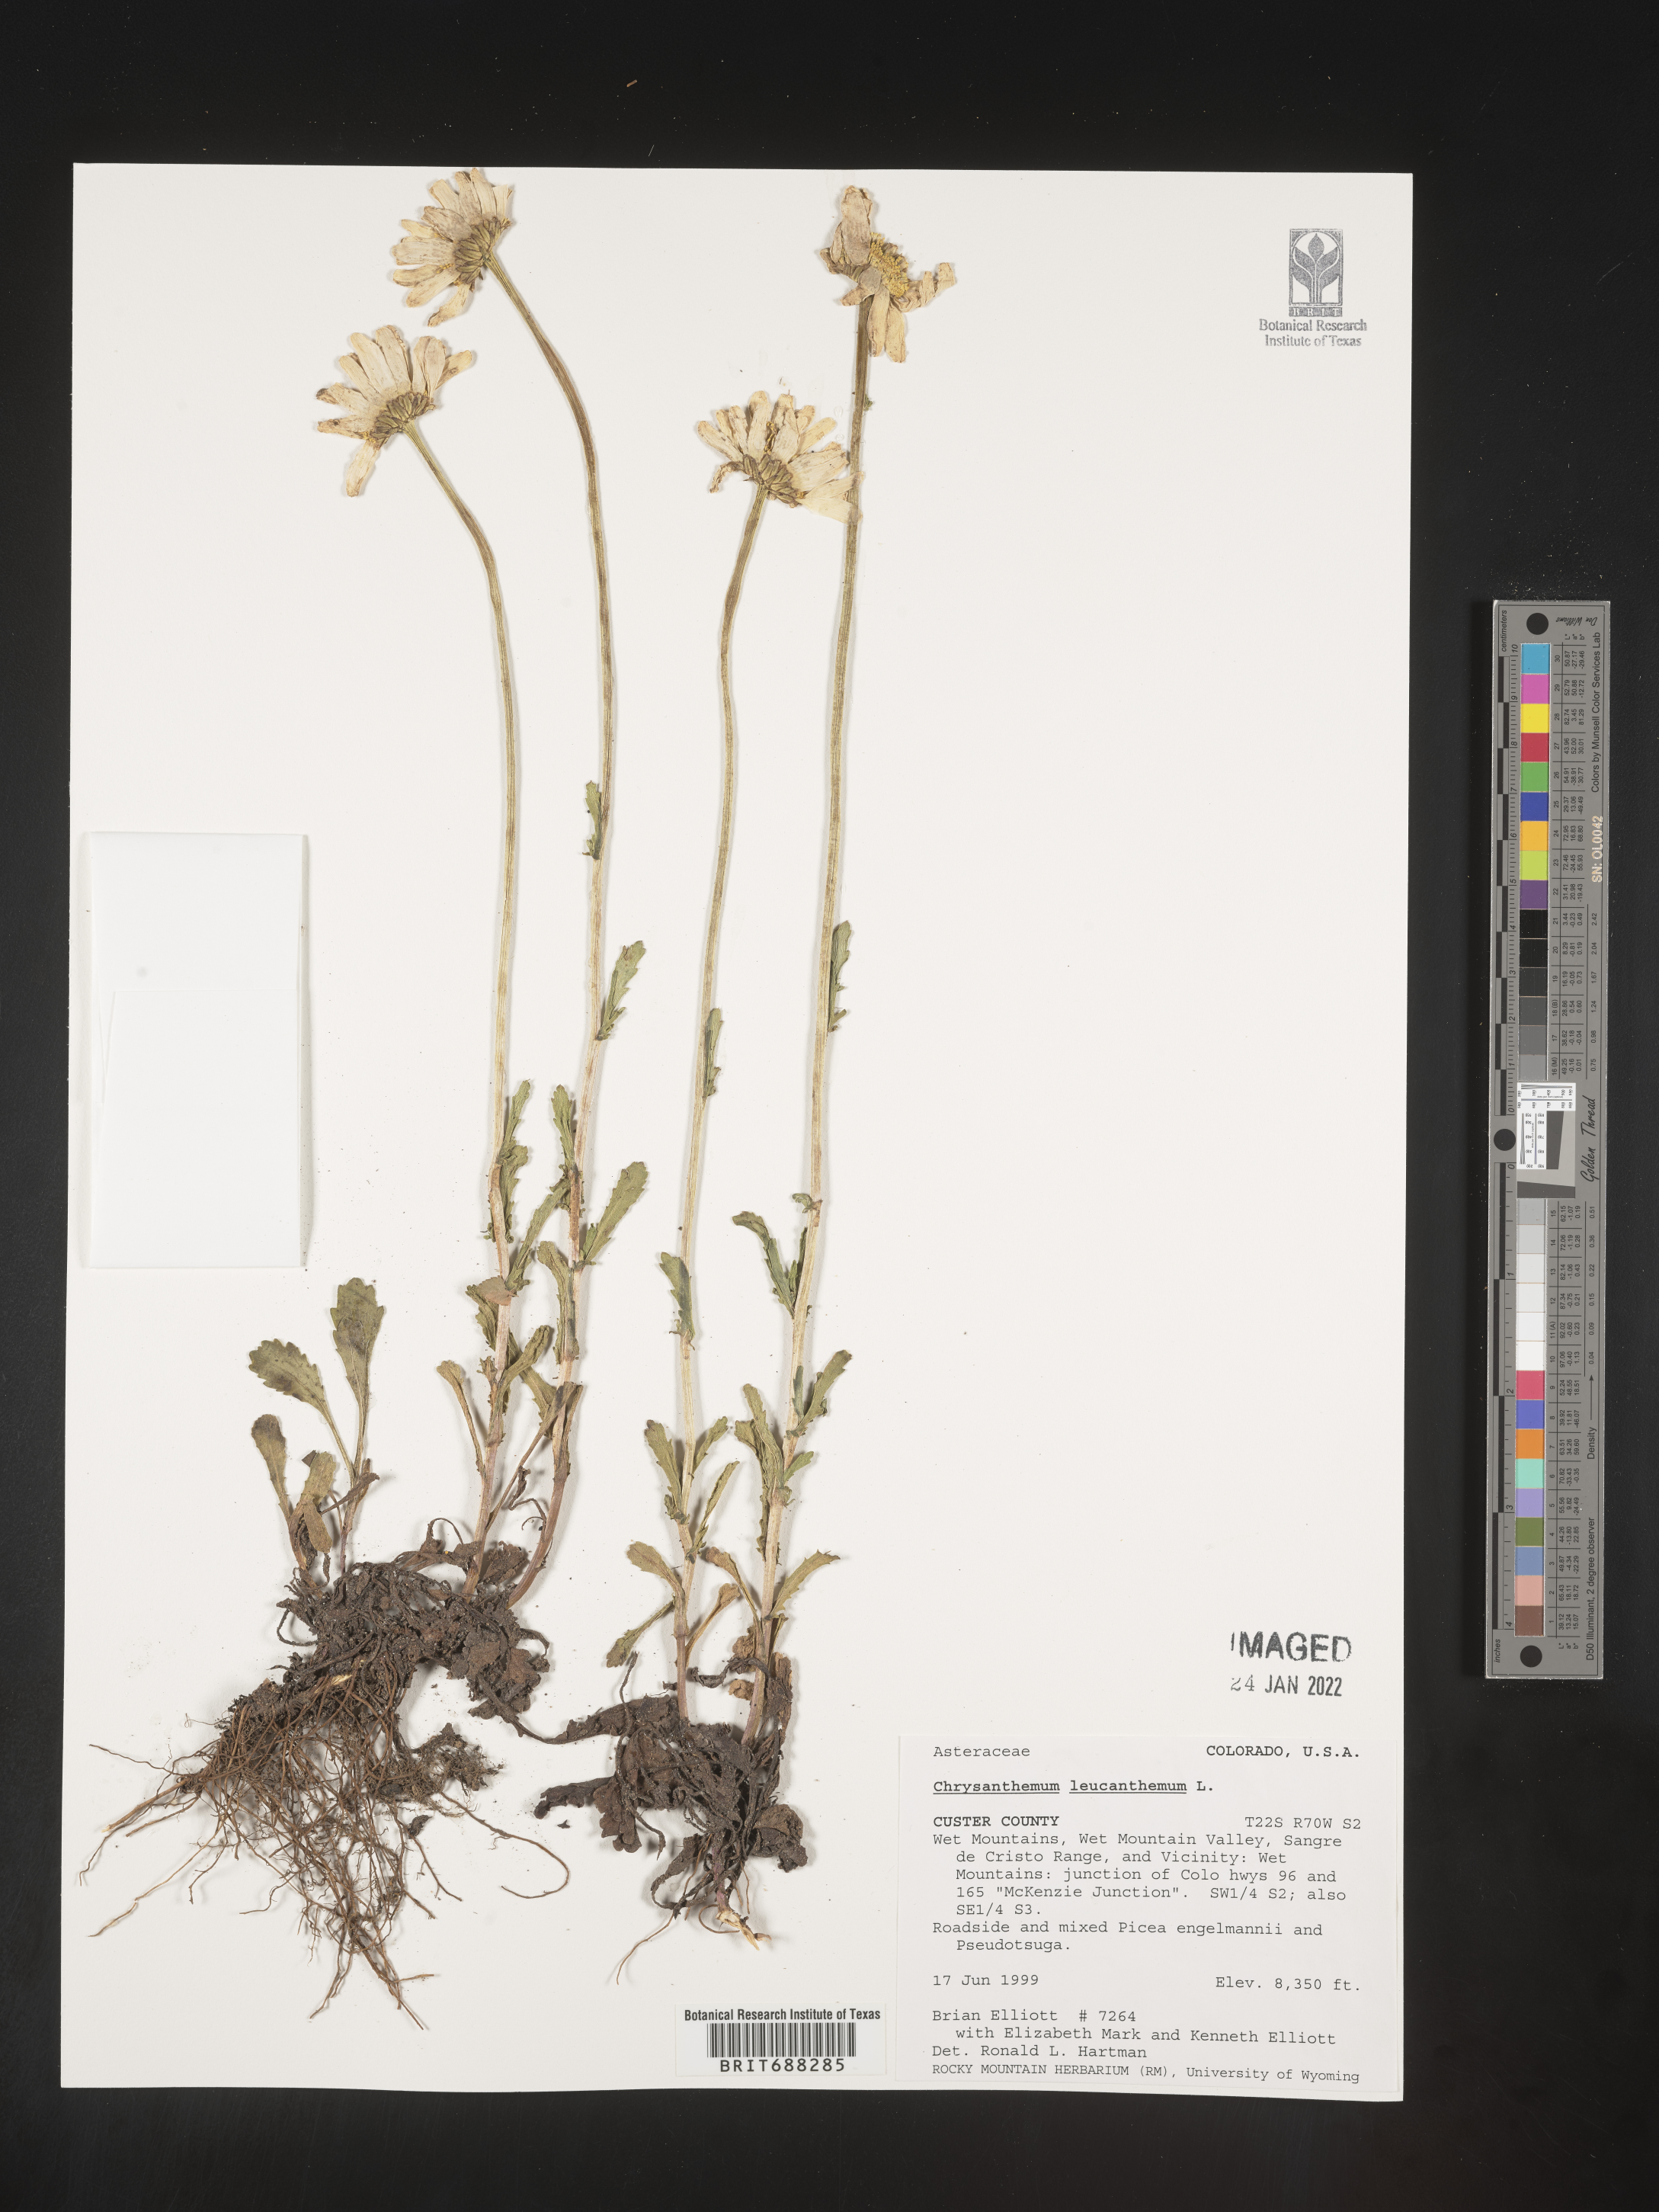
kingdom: Plantae
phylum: Tracheophyta
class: Magnoliopsida
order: Asterales
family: Asteraceae
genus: Chrysanthemum
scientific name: Chrysanthemum
